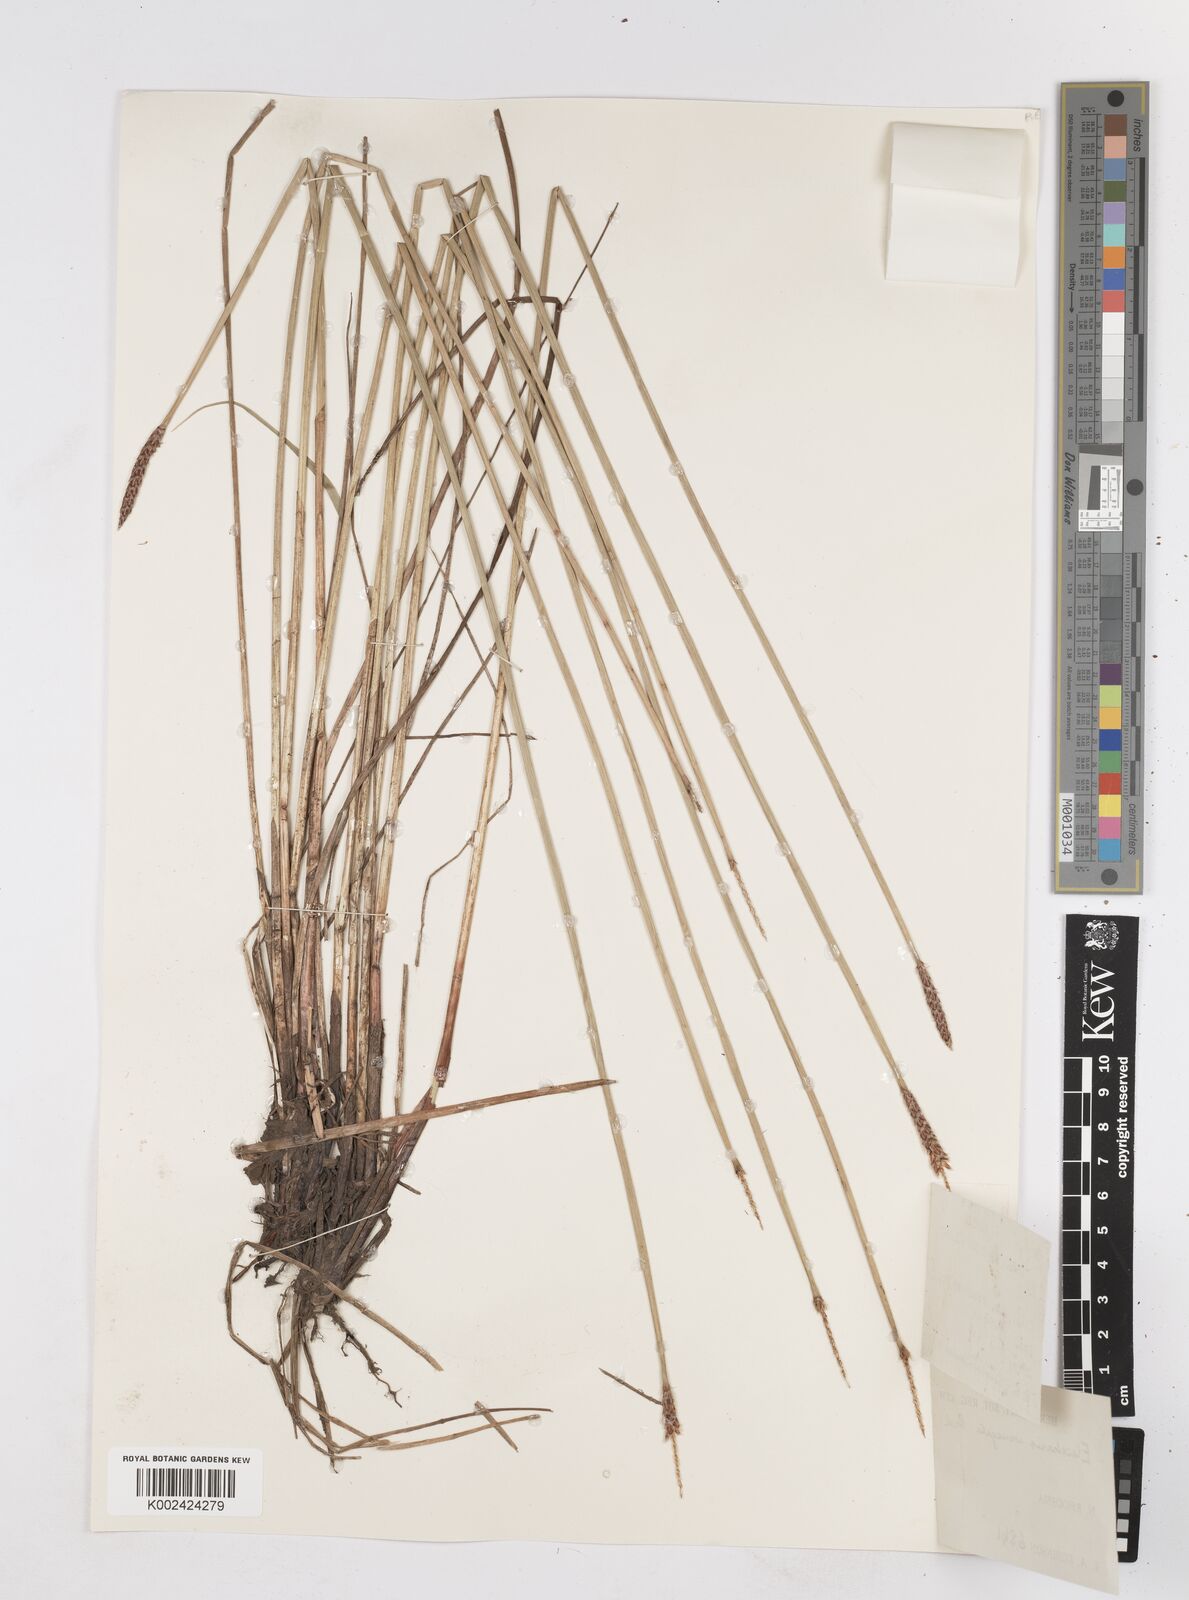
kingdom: Plantae
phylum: Tracheophyta
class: Liliopsida
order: Poales
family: Cyperaceae
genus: Eleocharis
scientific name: Eleocharis variegata
